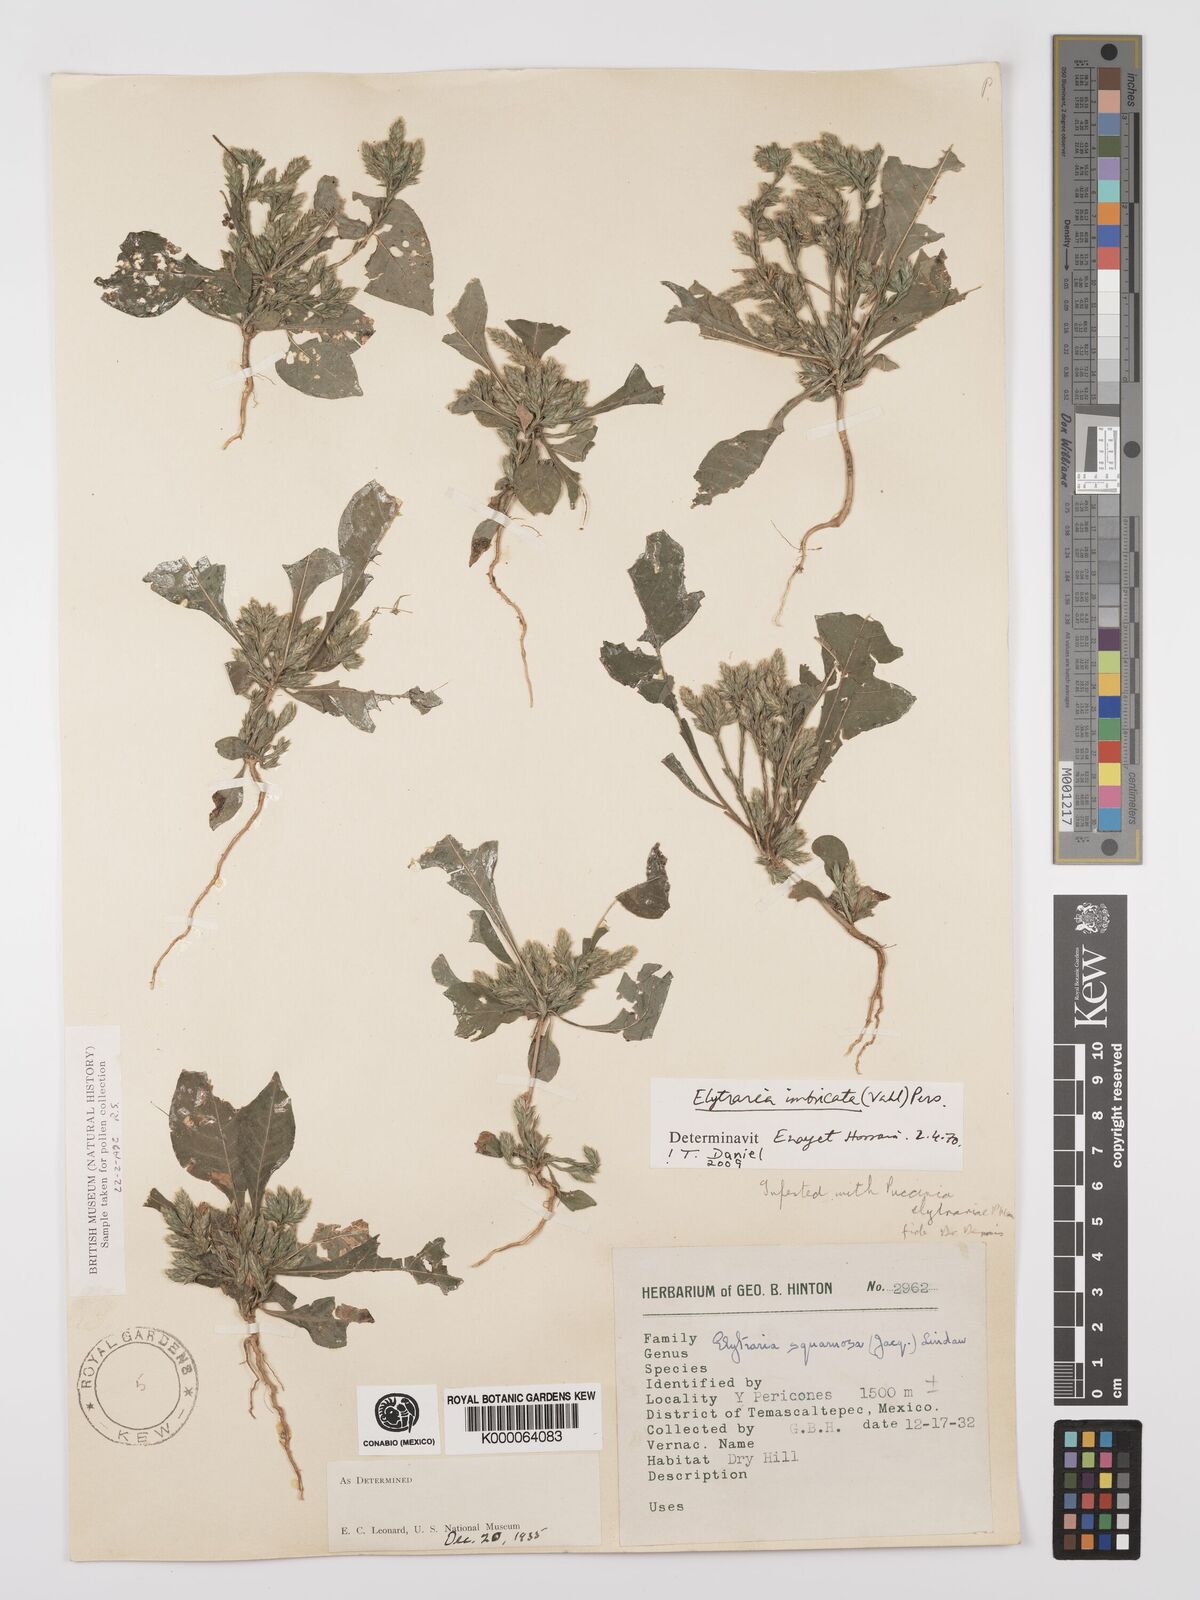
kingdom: Plantae
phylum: Tracheophyta
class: Magnoliopsida
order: Lamiales
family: Acanthaceae
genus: Elytraria
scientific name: Elytraria imbricata
